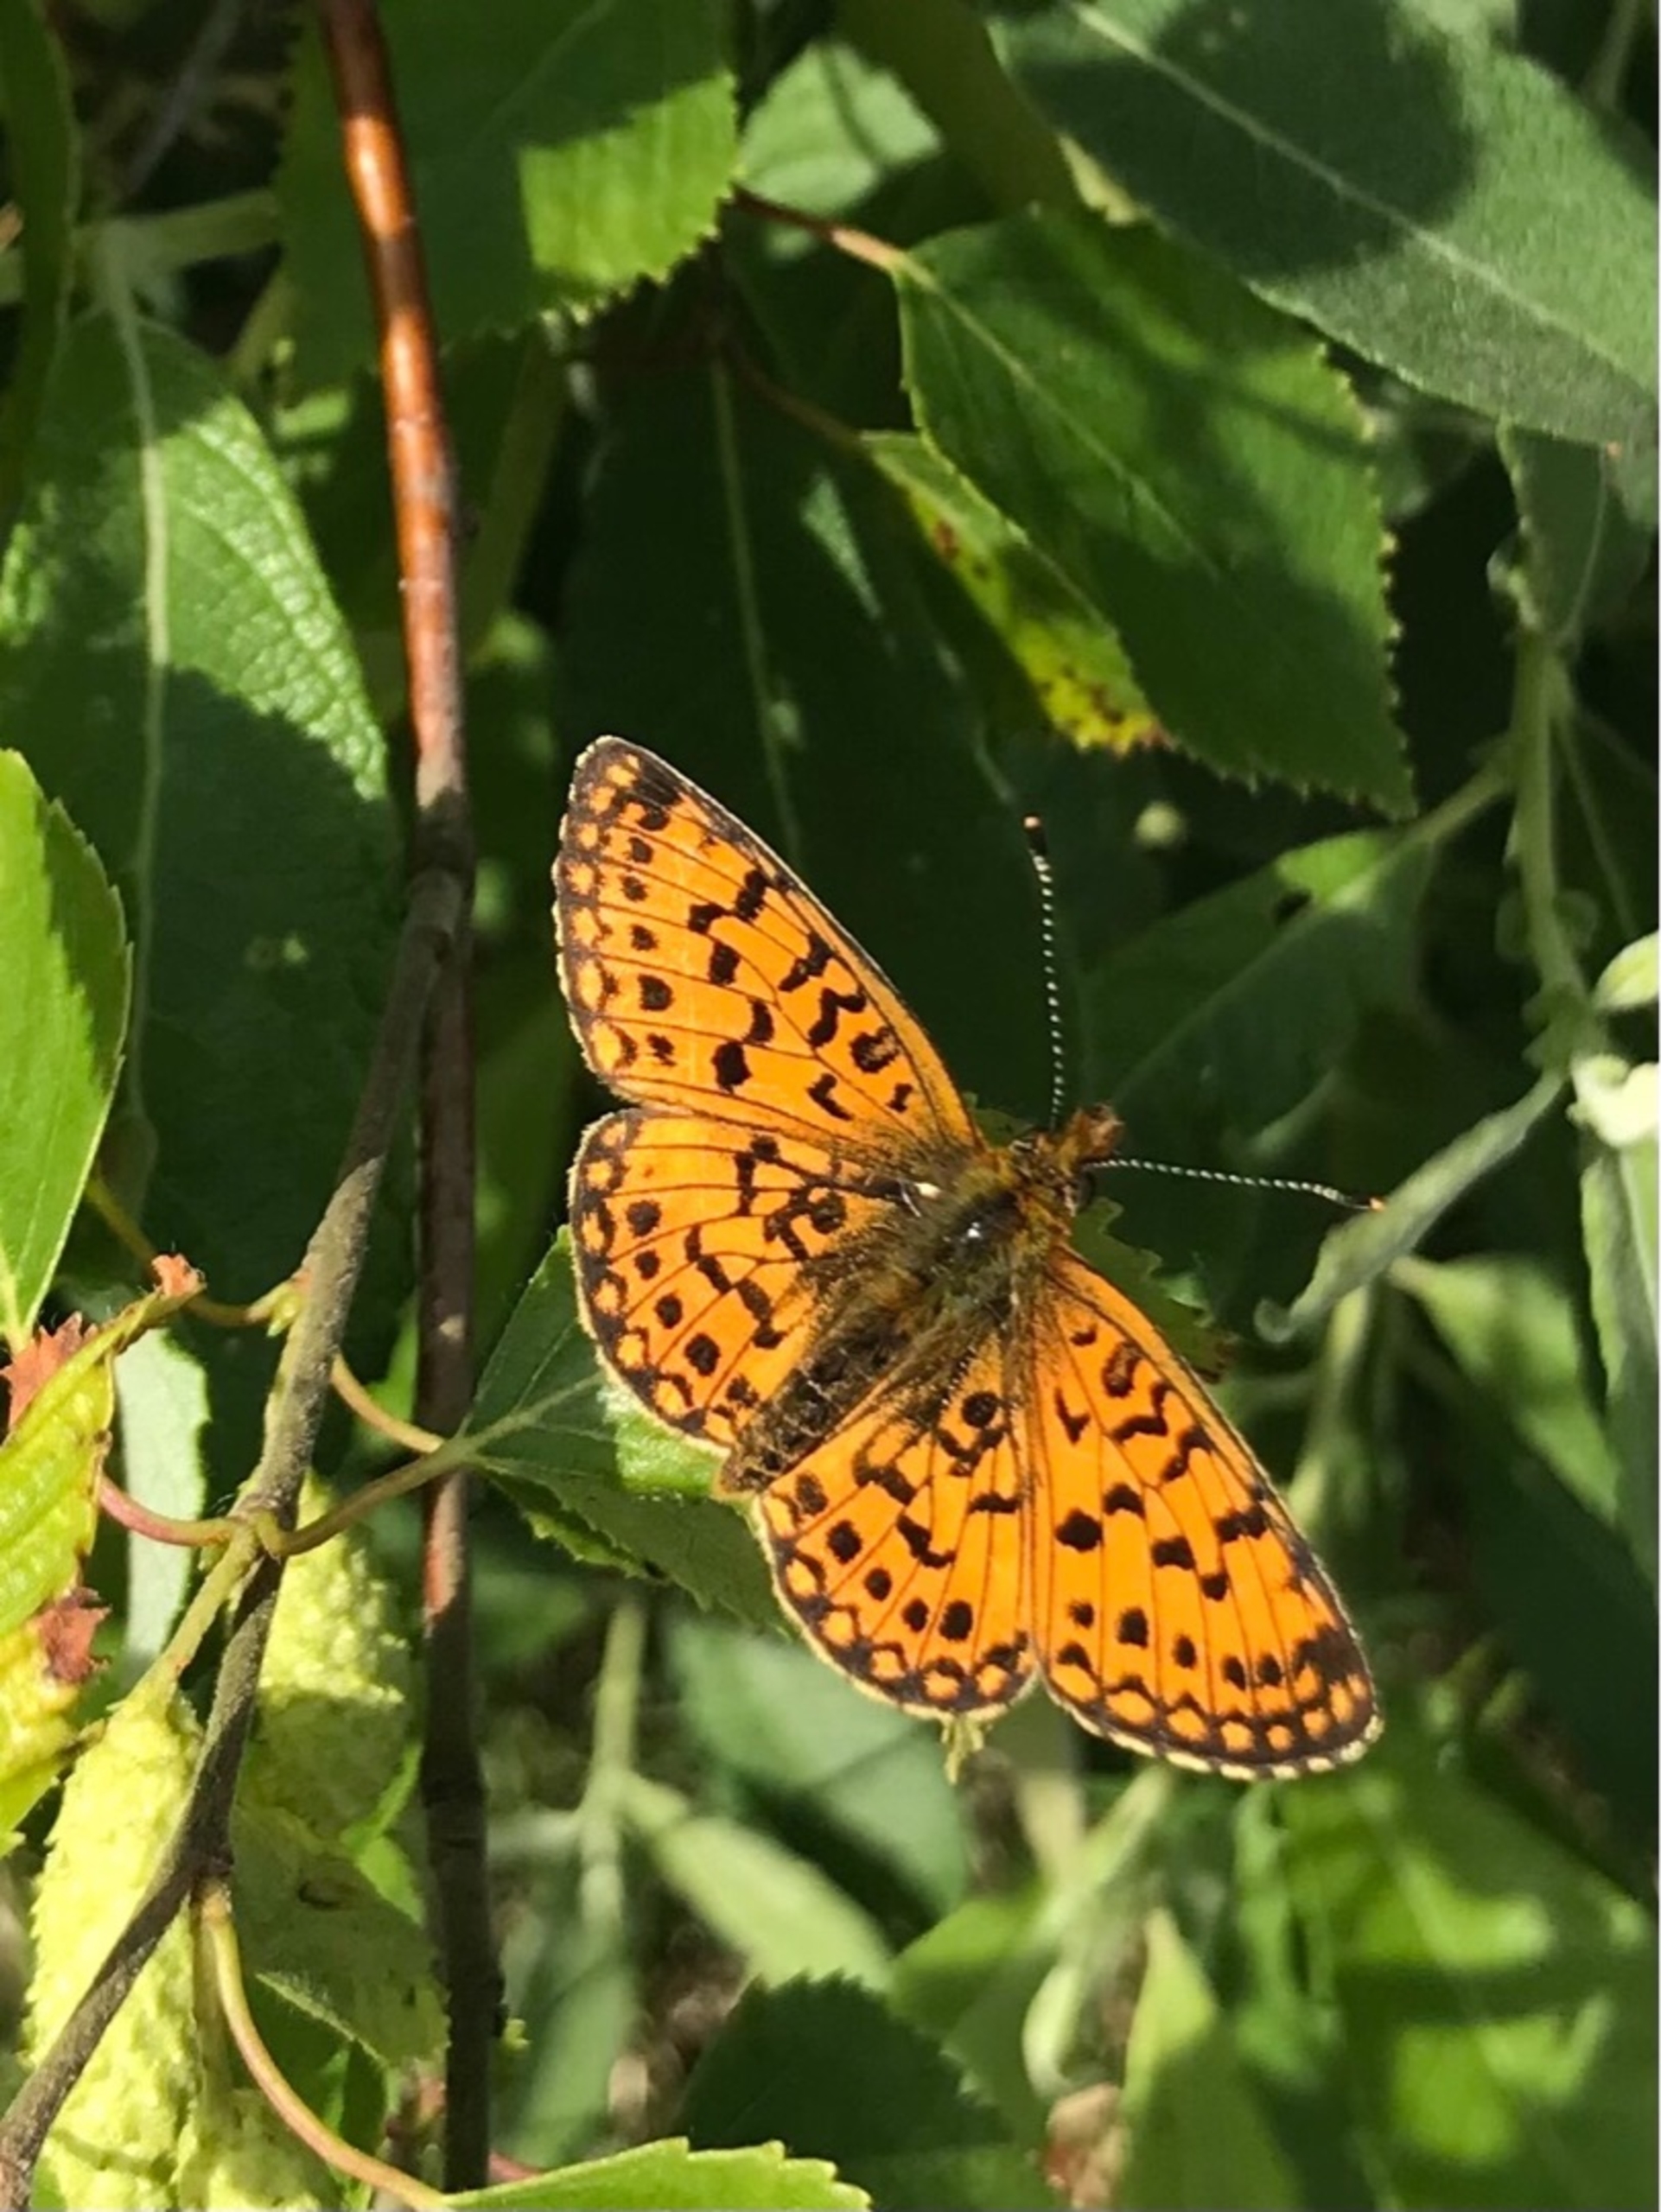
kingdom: Animalia
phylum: Arthropoda
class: Insecta
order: Lepidoptera
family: Nymphalidae
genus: Boloria
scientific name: Boloria selene
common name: Brunlig perlemorsommerfugl
